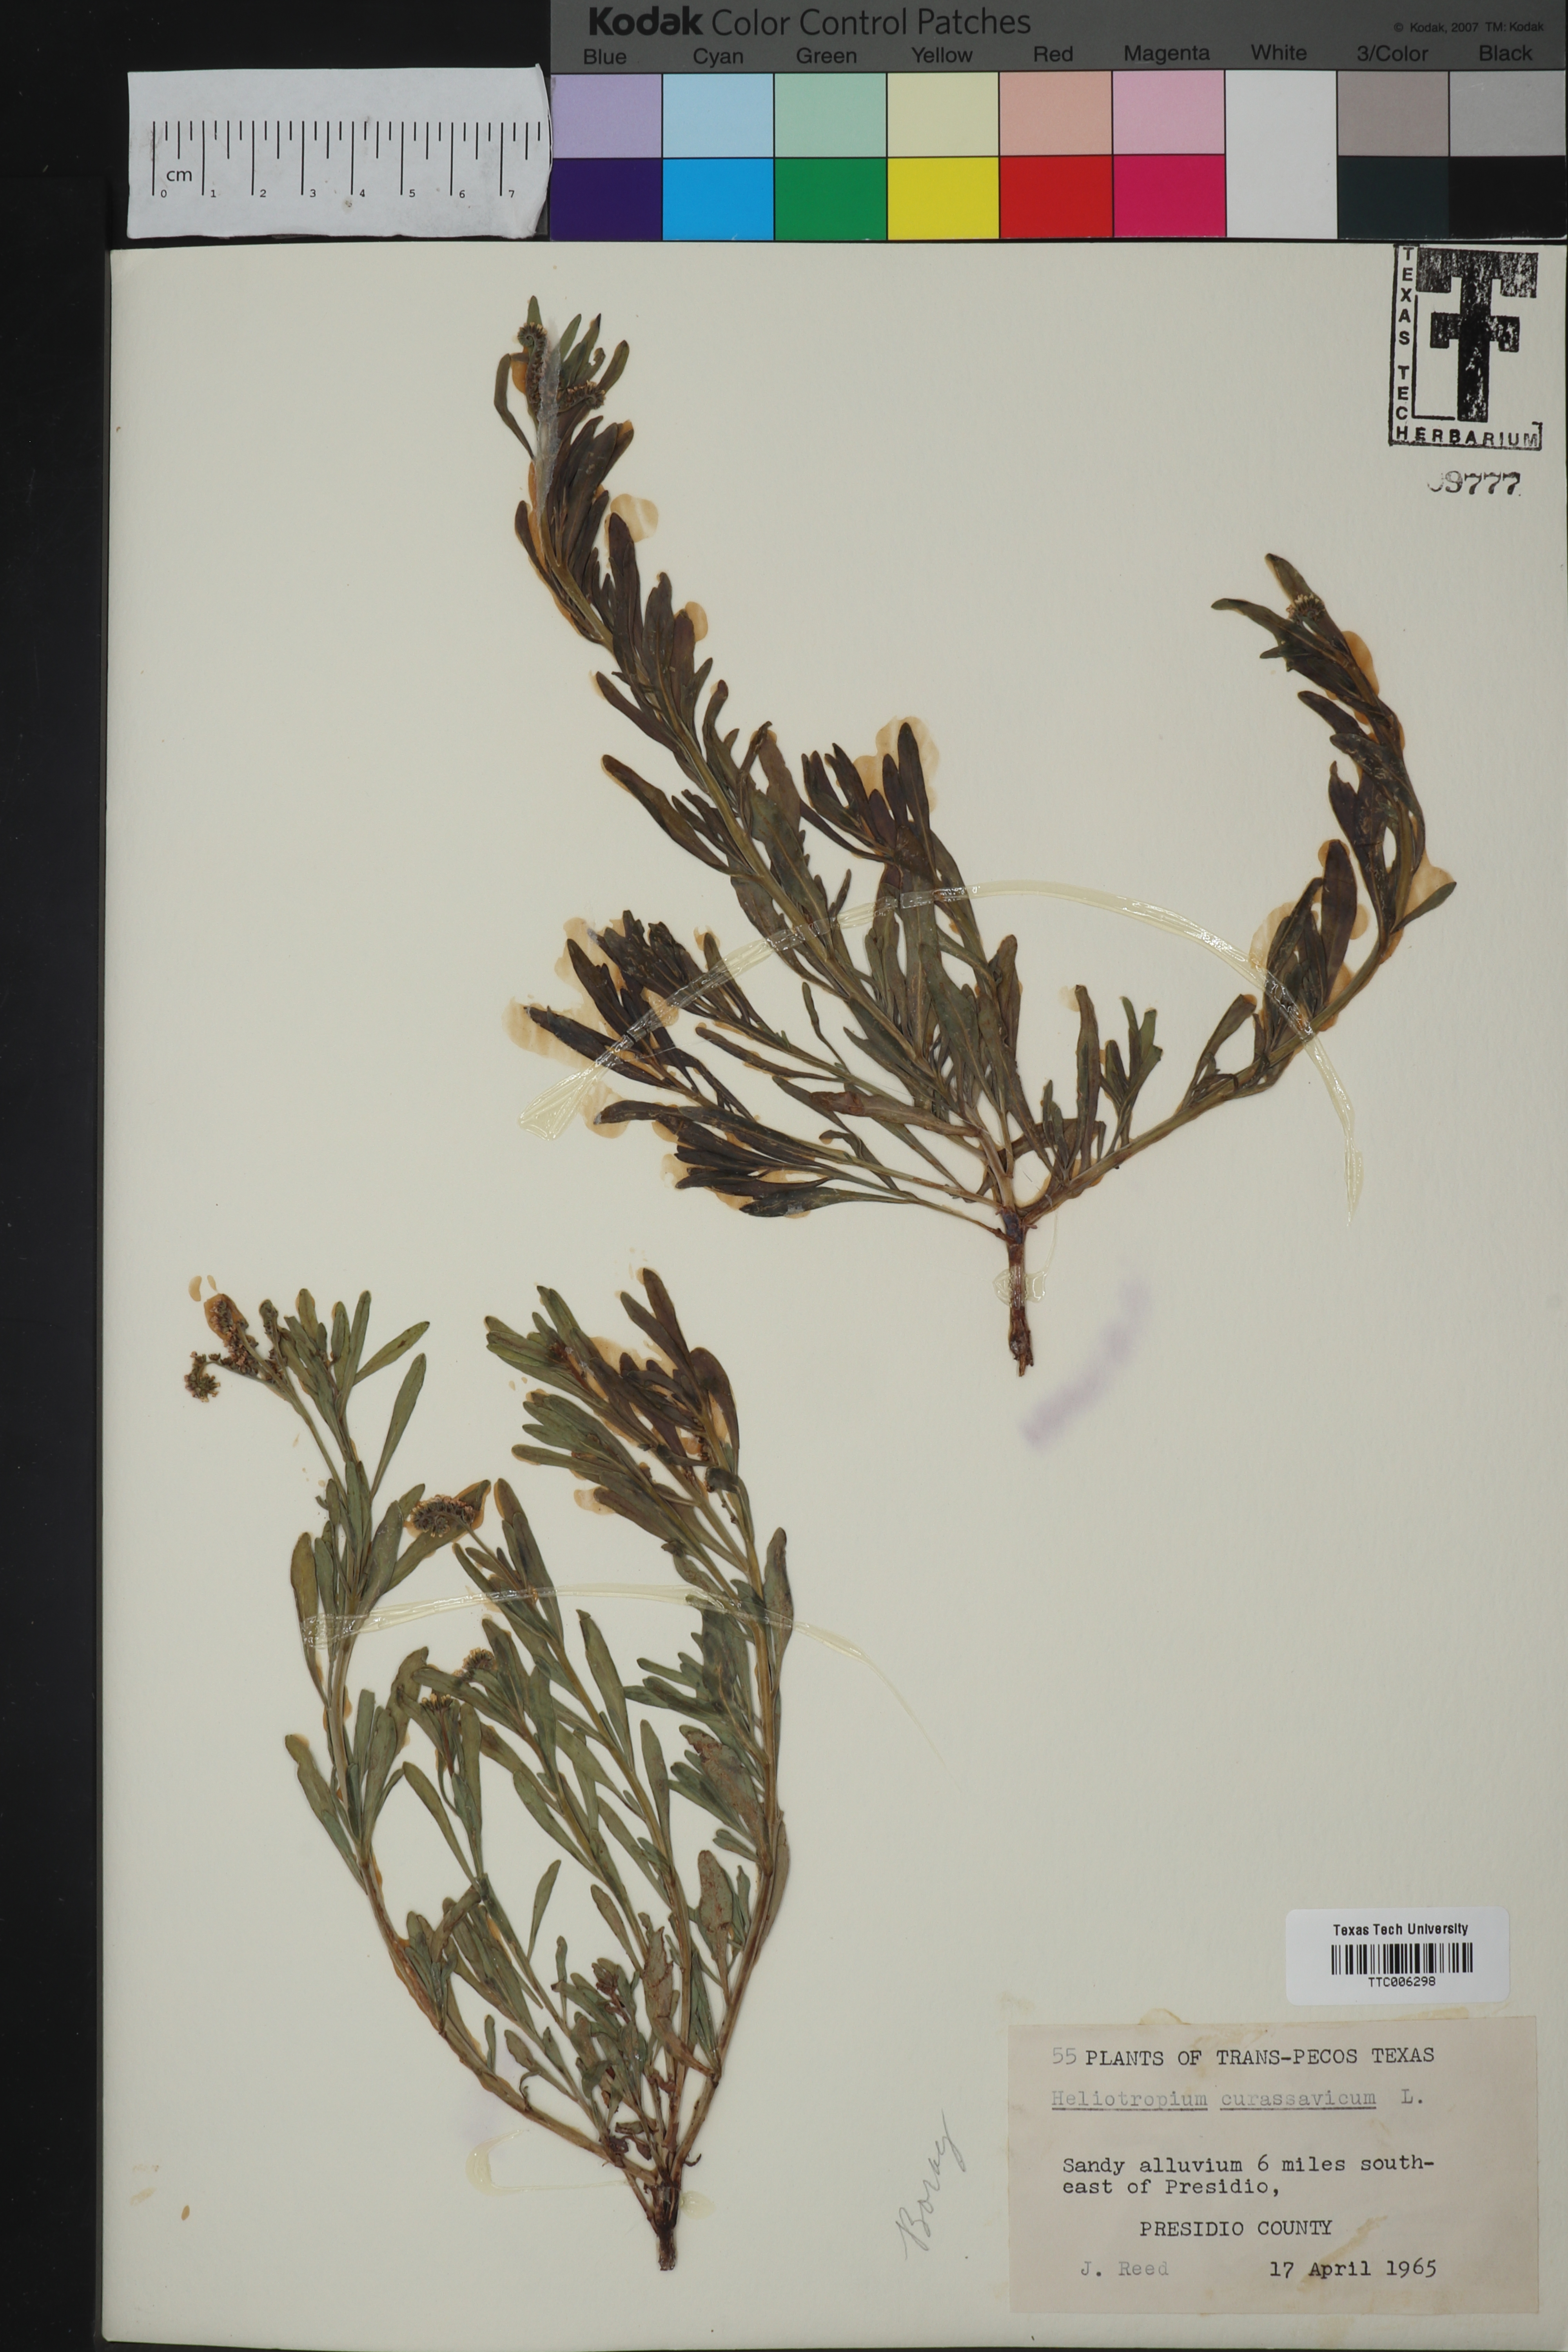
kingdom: Plantae
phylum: Tracheophyta
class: Magnoliopsida
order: Boraginales
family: Heliotropiaceae
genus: Heliotropium
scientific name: Heliotropium curassavicum
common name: Seaside heliotrope
